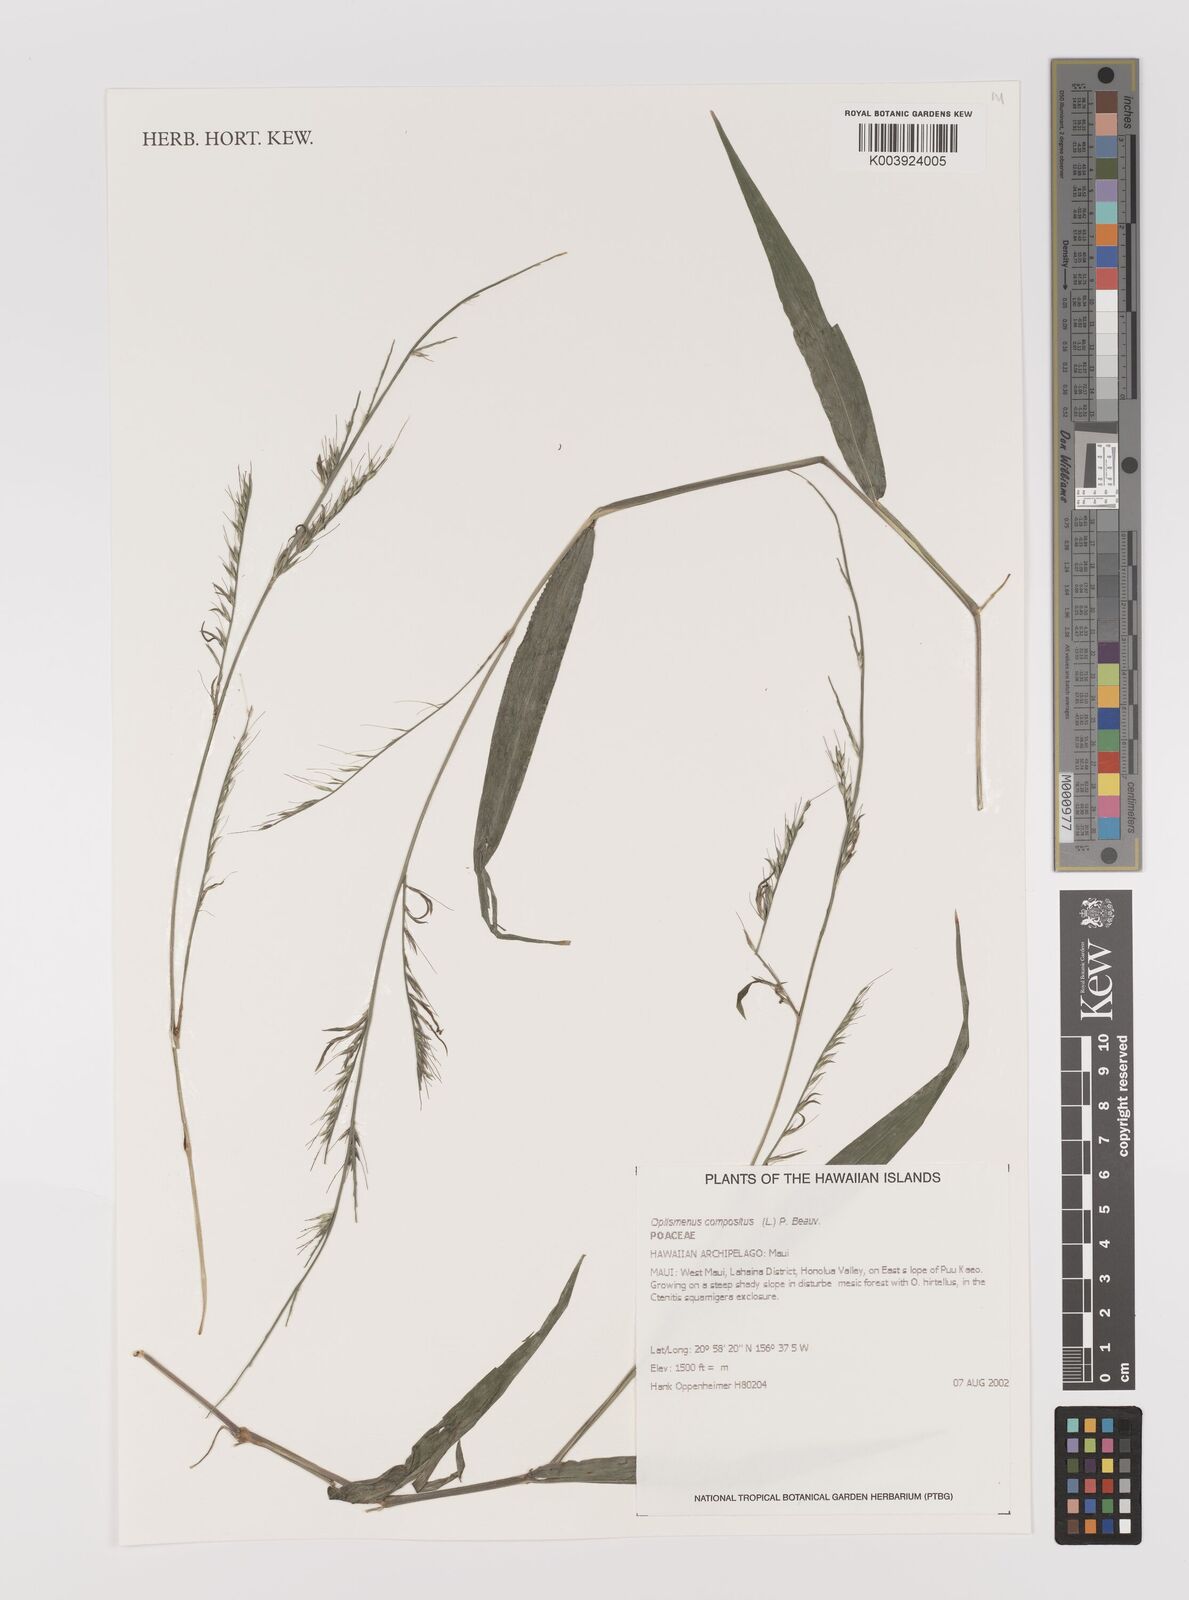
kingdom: Plantae
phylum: Tracheophyta
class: Liliopsida
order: Poales
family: Poaceae
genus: Oplismenus
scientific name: Oplismenus compositus
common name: Running mountain grass
